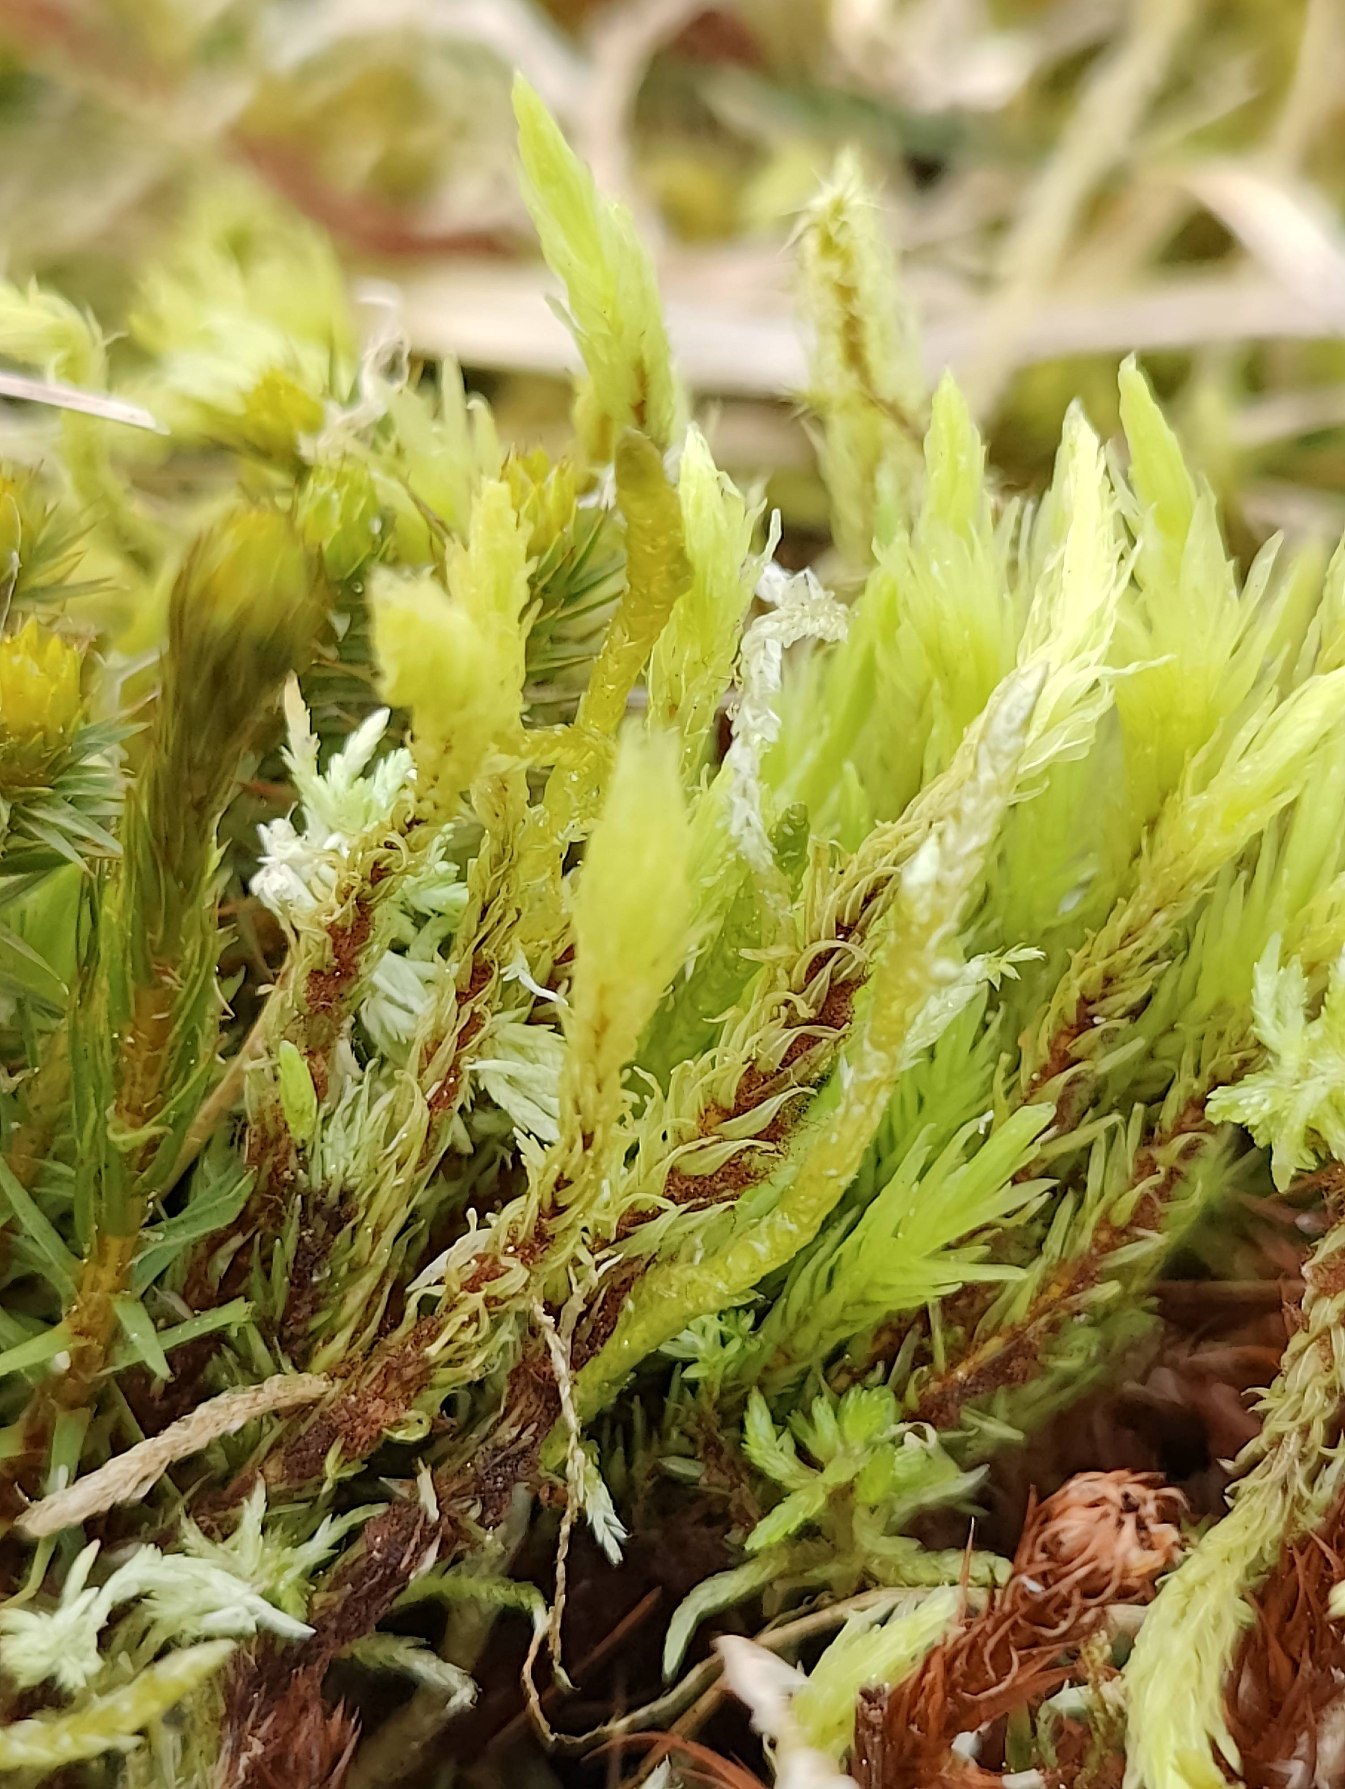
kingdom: Plantae
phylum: Bryophyta
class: Bryopsida
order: Aulacomniales
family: Aulacomniaceae
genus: Aulacomnium
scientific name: Aulacomnium palustre
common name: Almindelig filtmos
